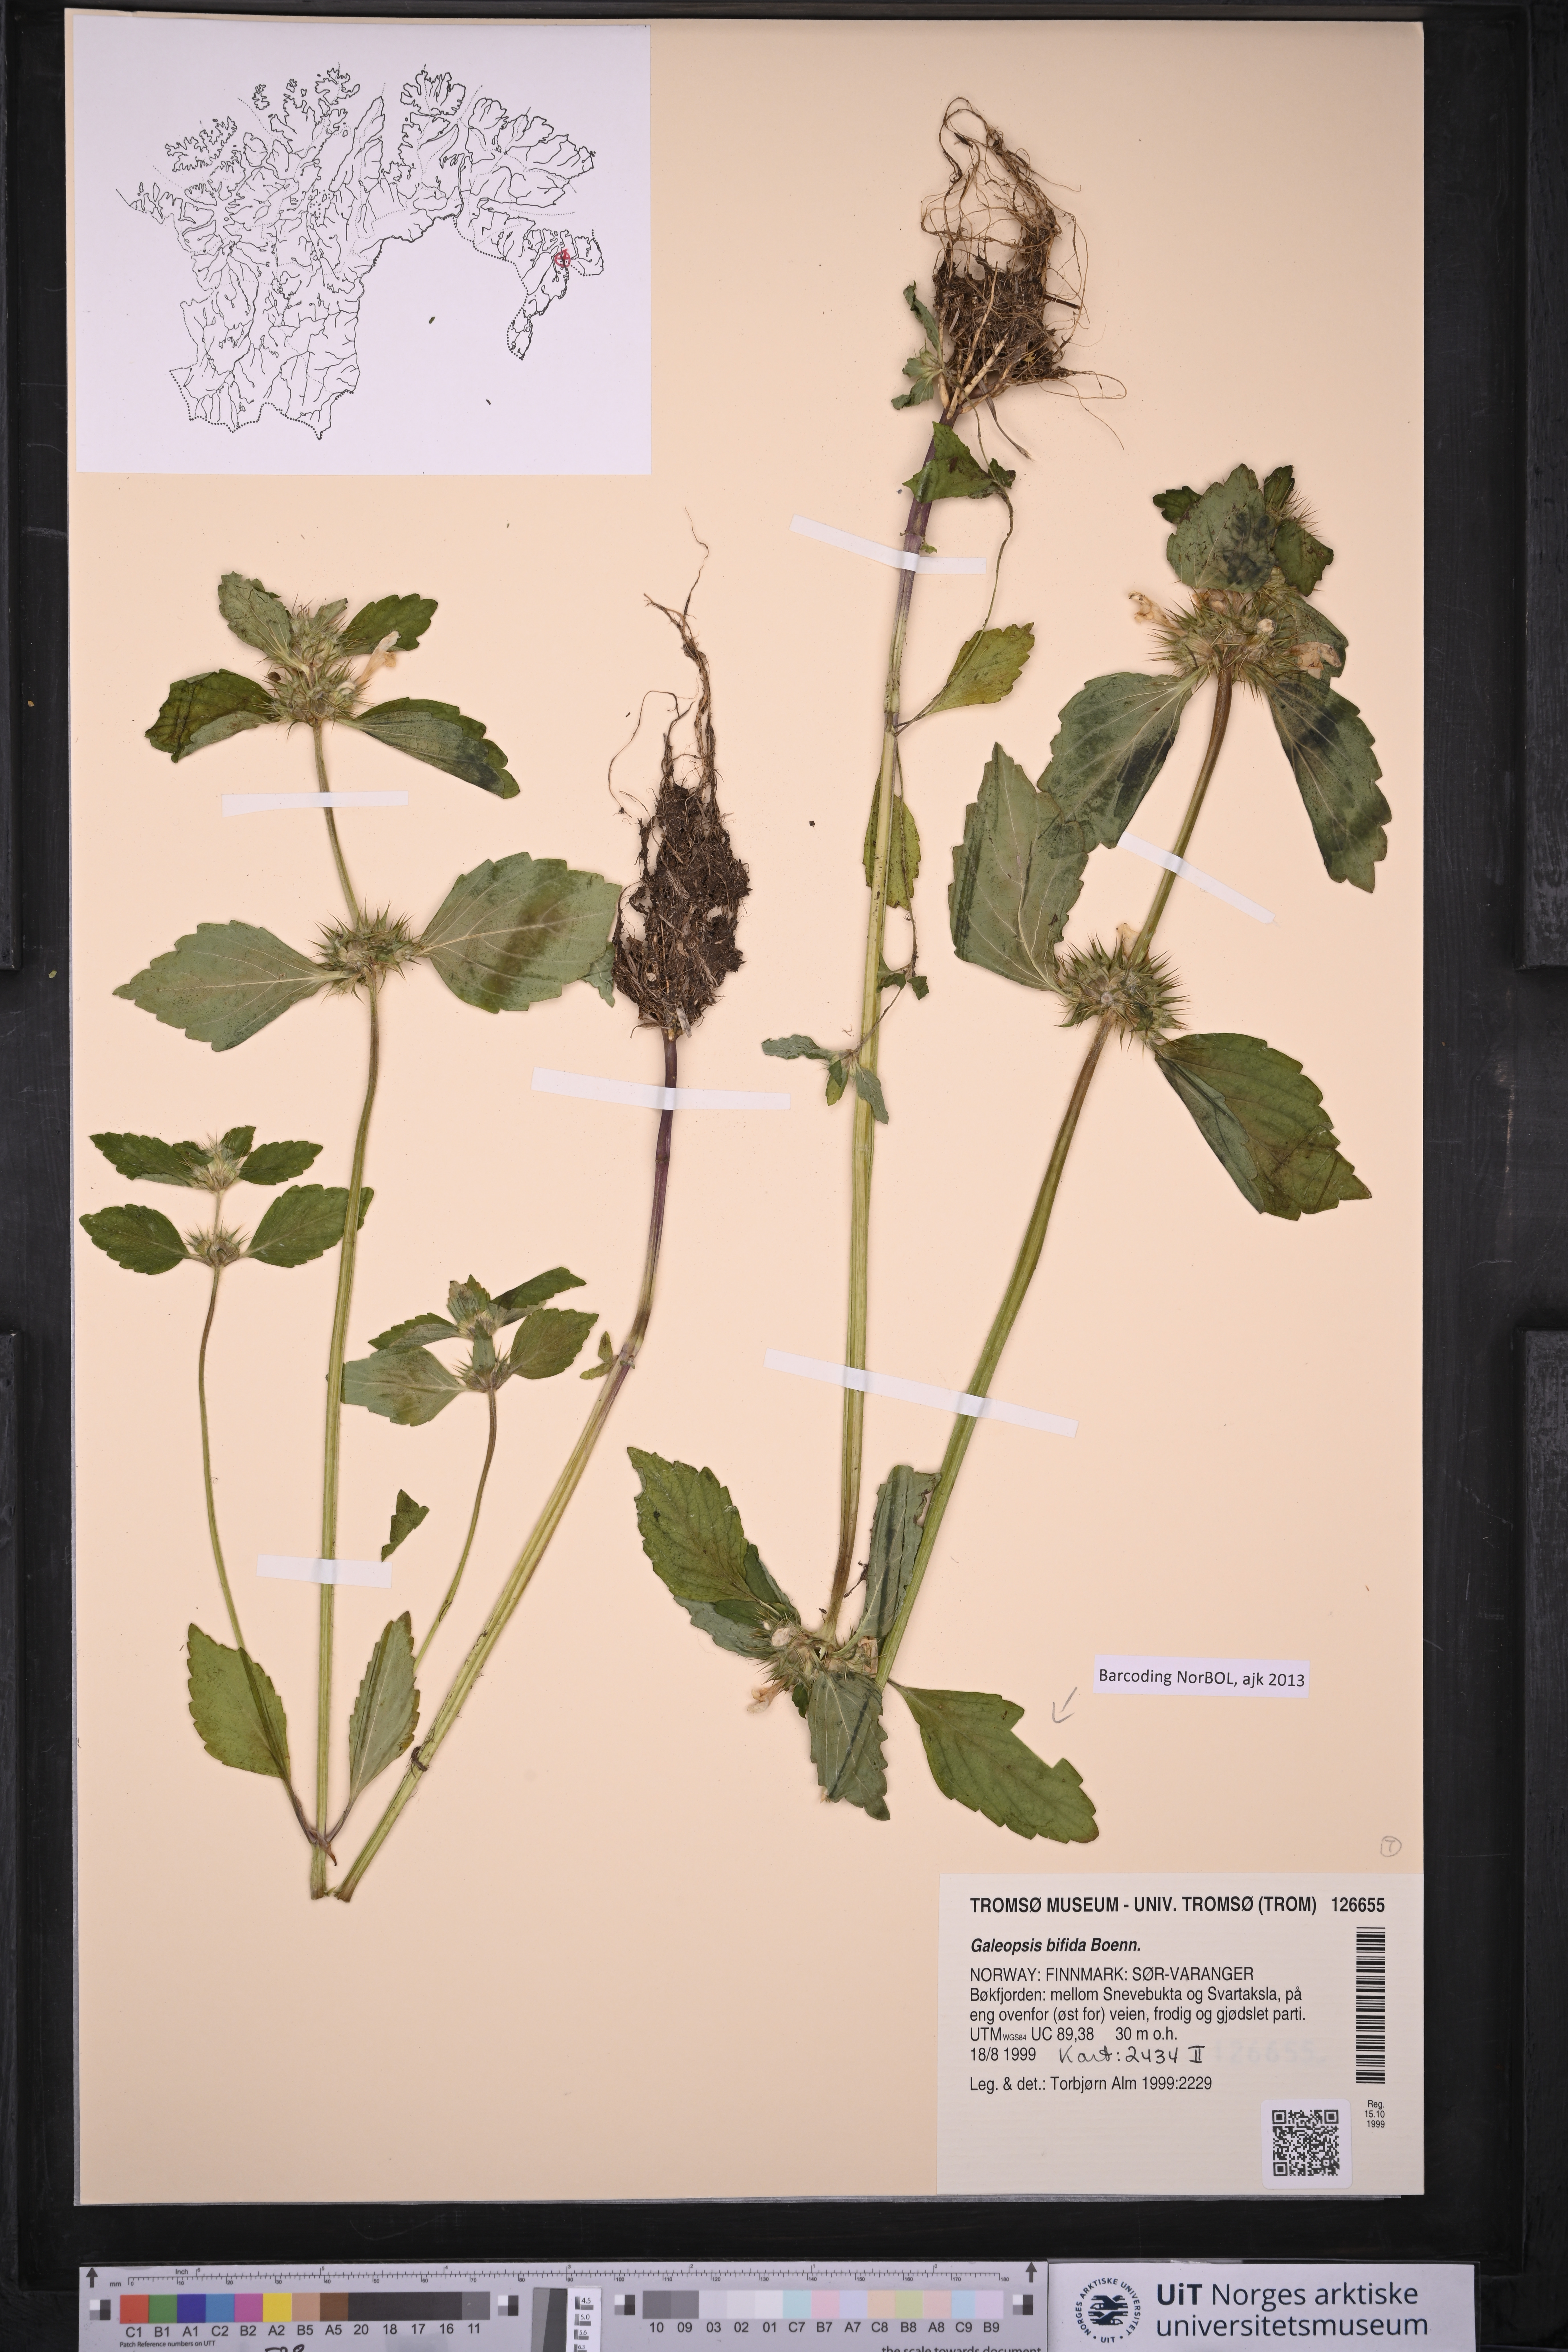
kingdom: Plantae
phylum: Tracheophyta
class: Magnoliopsida
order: Lamiales
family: Lamiaceae
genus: Galeopsis
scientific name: Galeopsis bifida
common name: Bifid hemp-nettle
